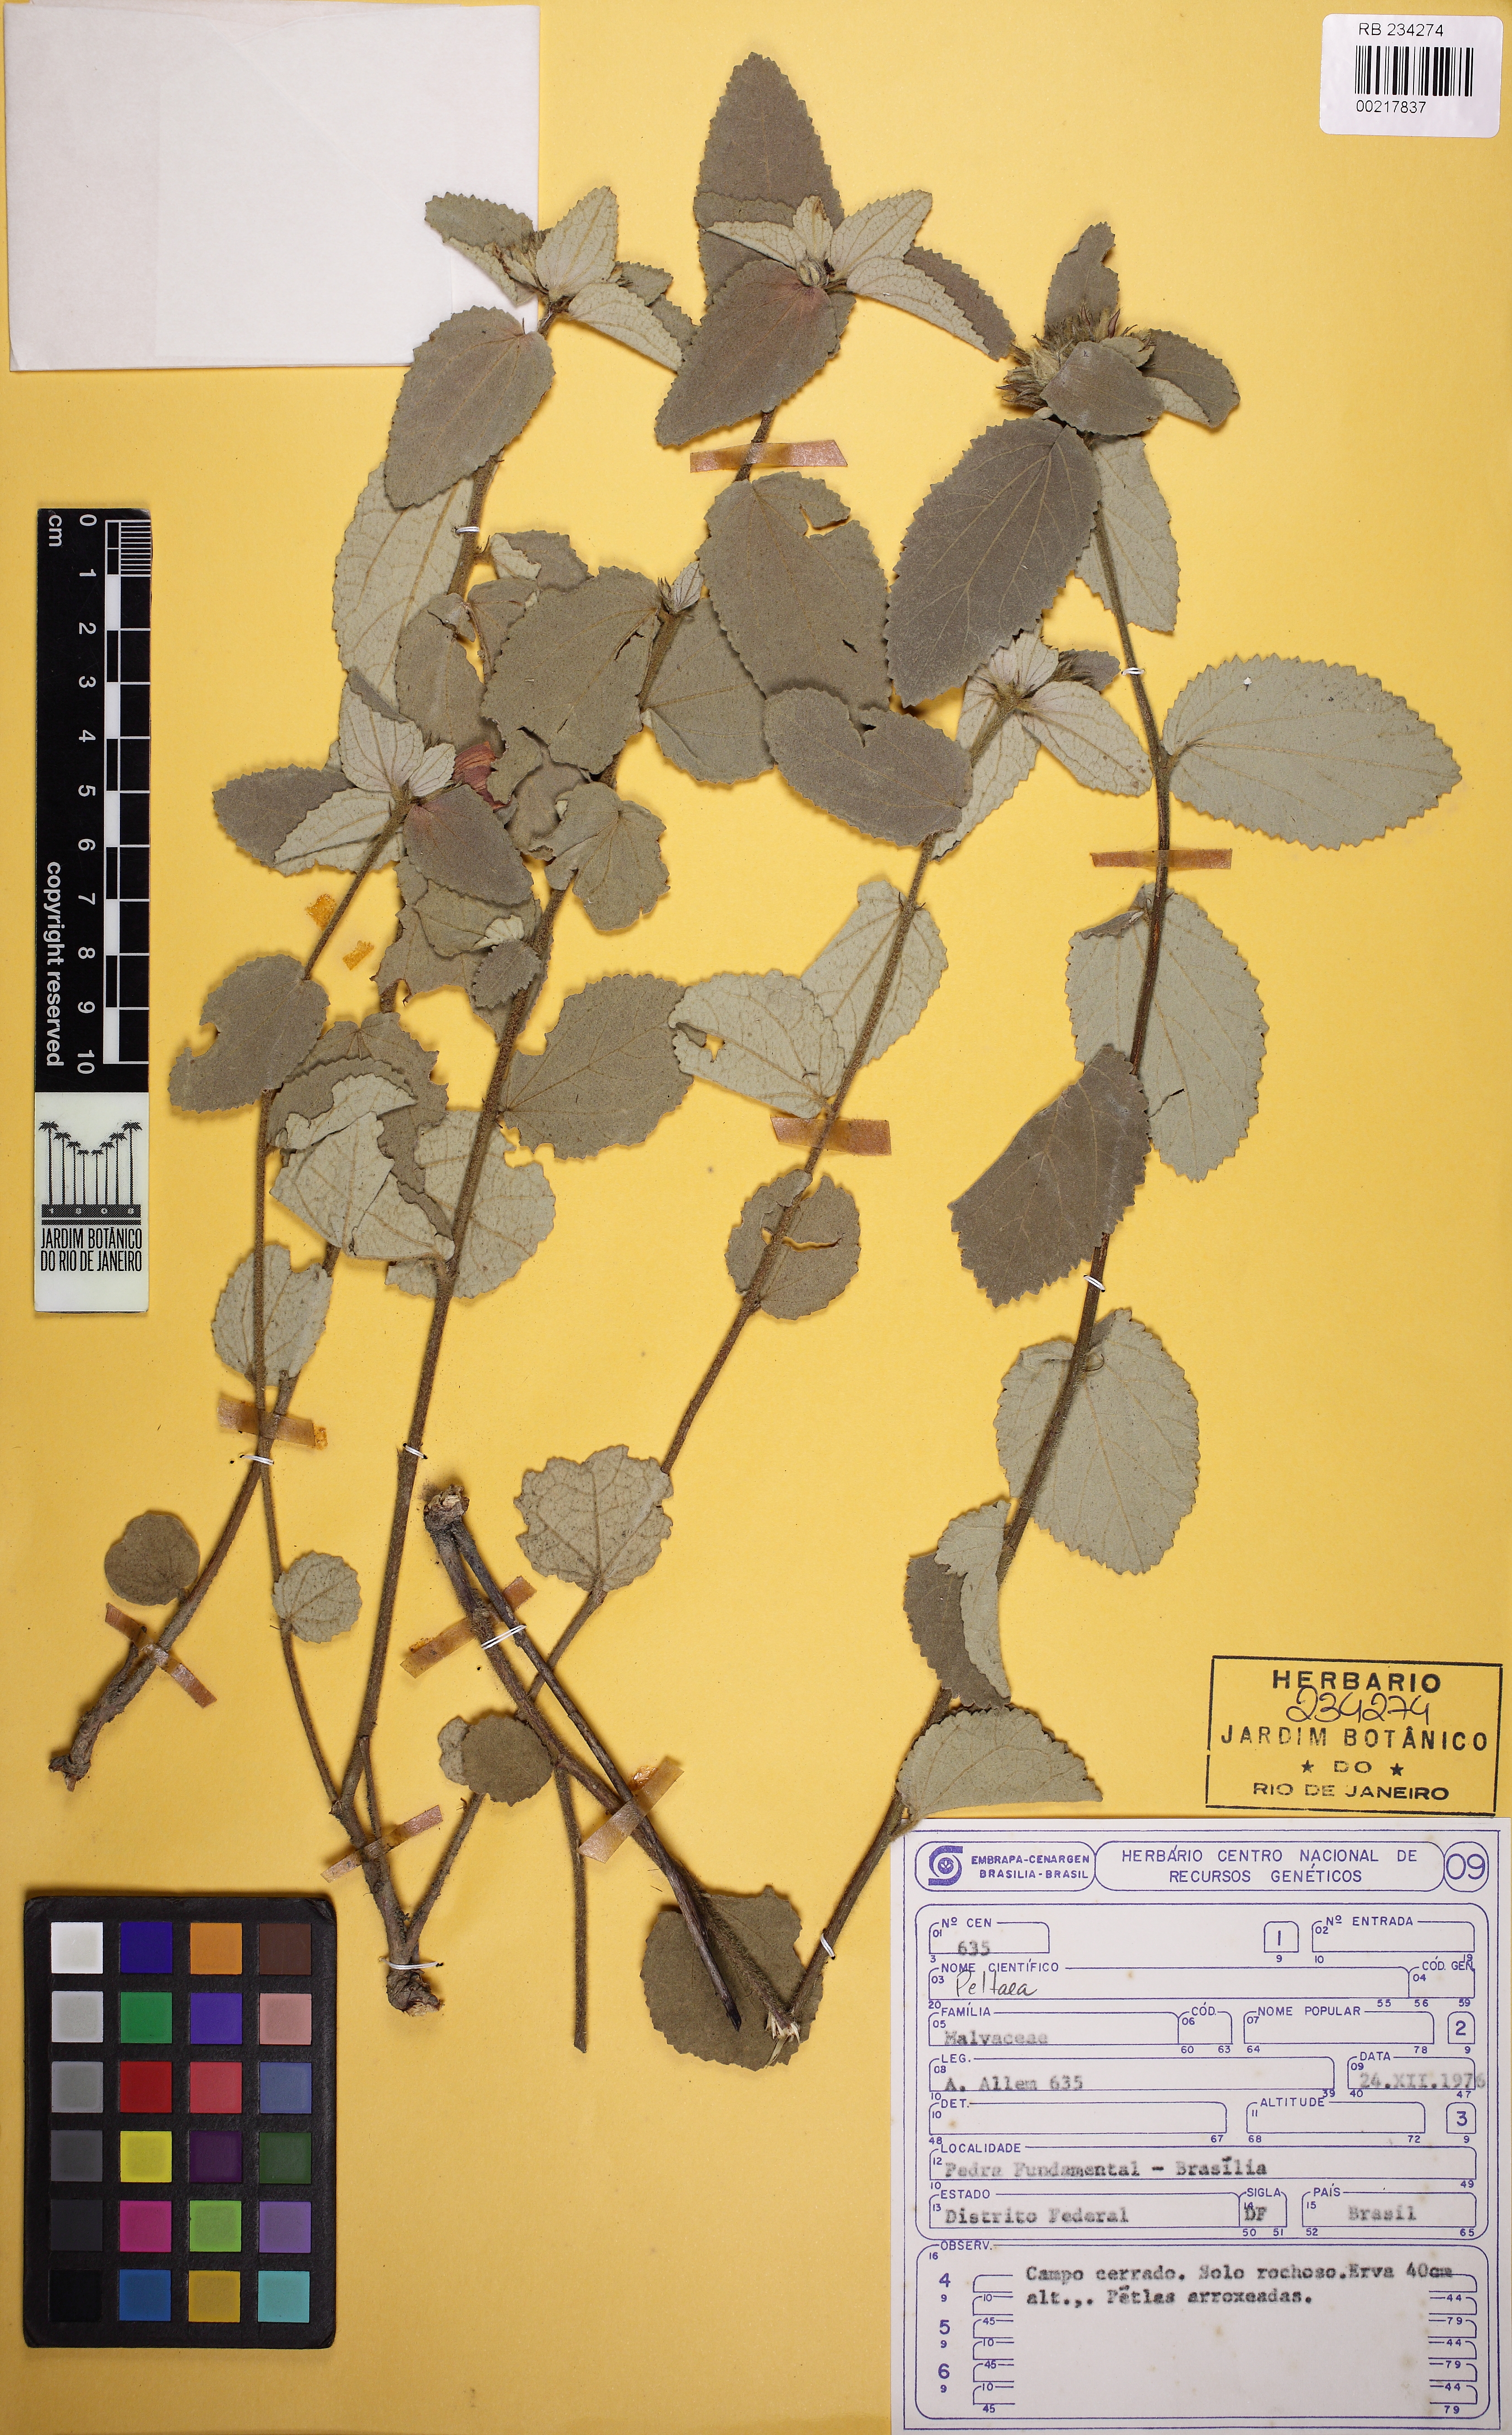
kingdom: Plantae
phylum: Tracheophyta
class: Magnoliopsida
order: Malvales
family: Malvaceae
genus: Peltaea
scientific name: Peltaea macedoi
